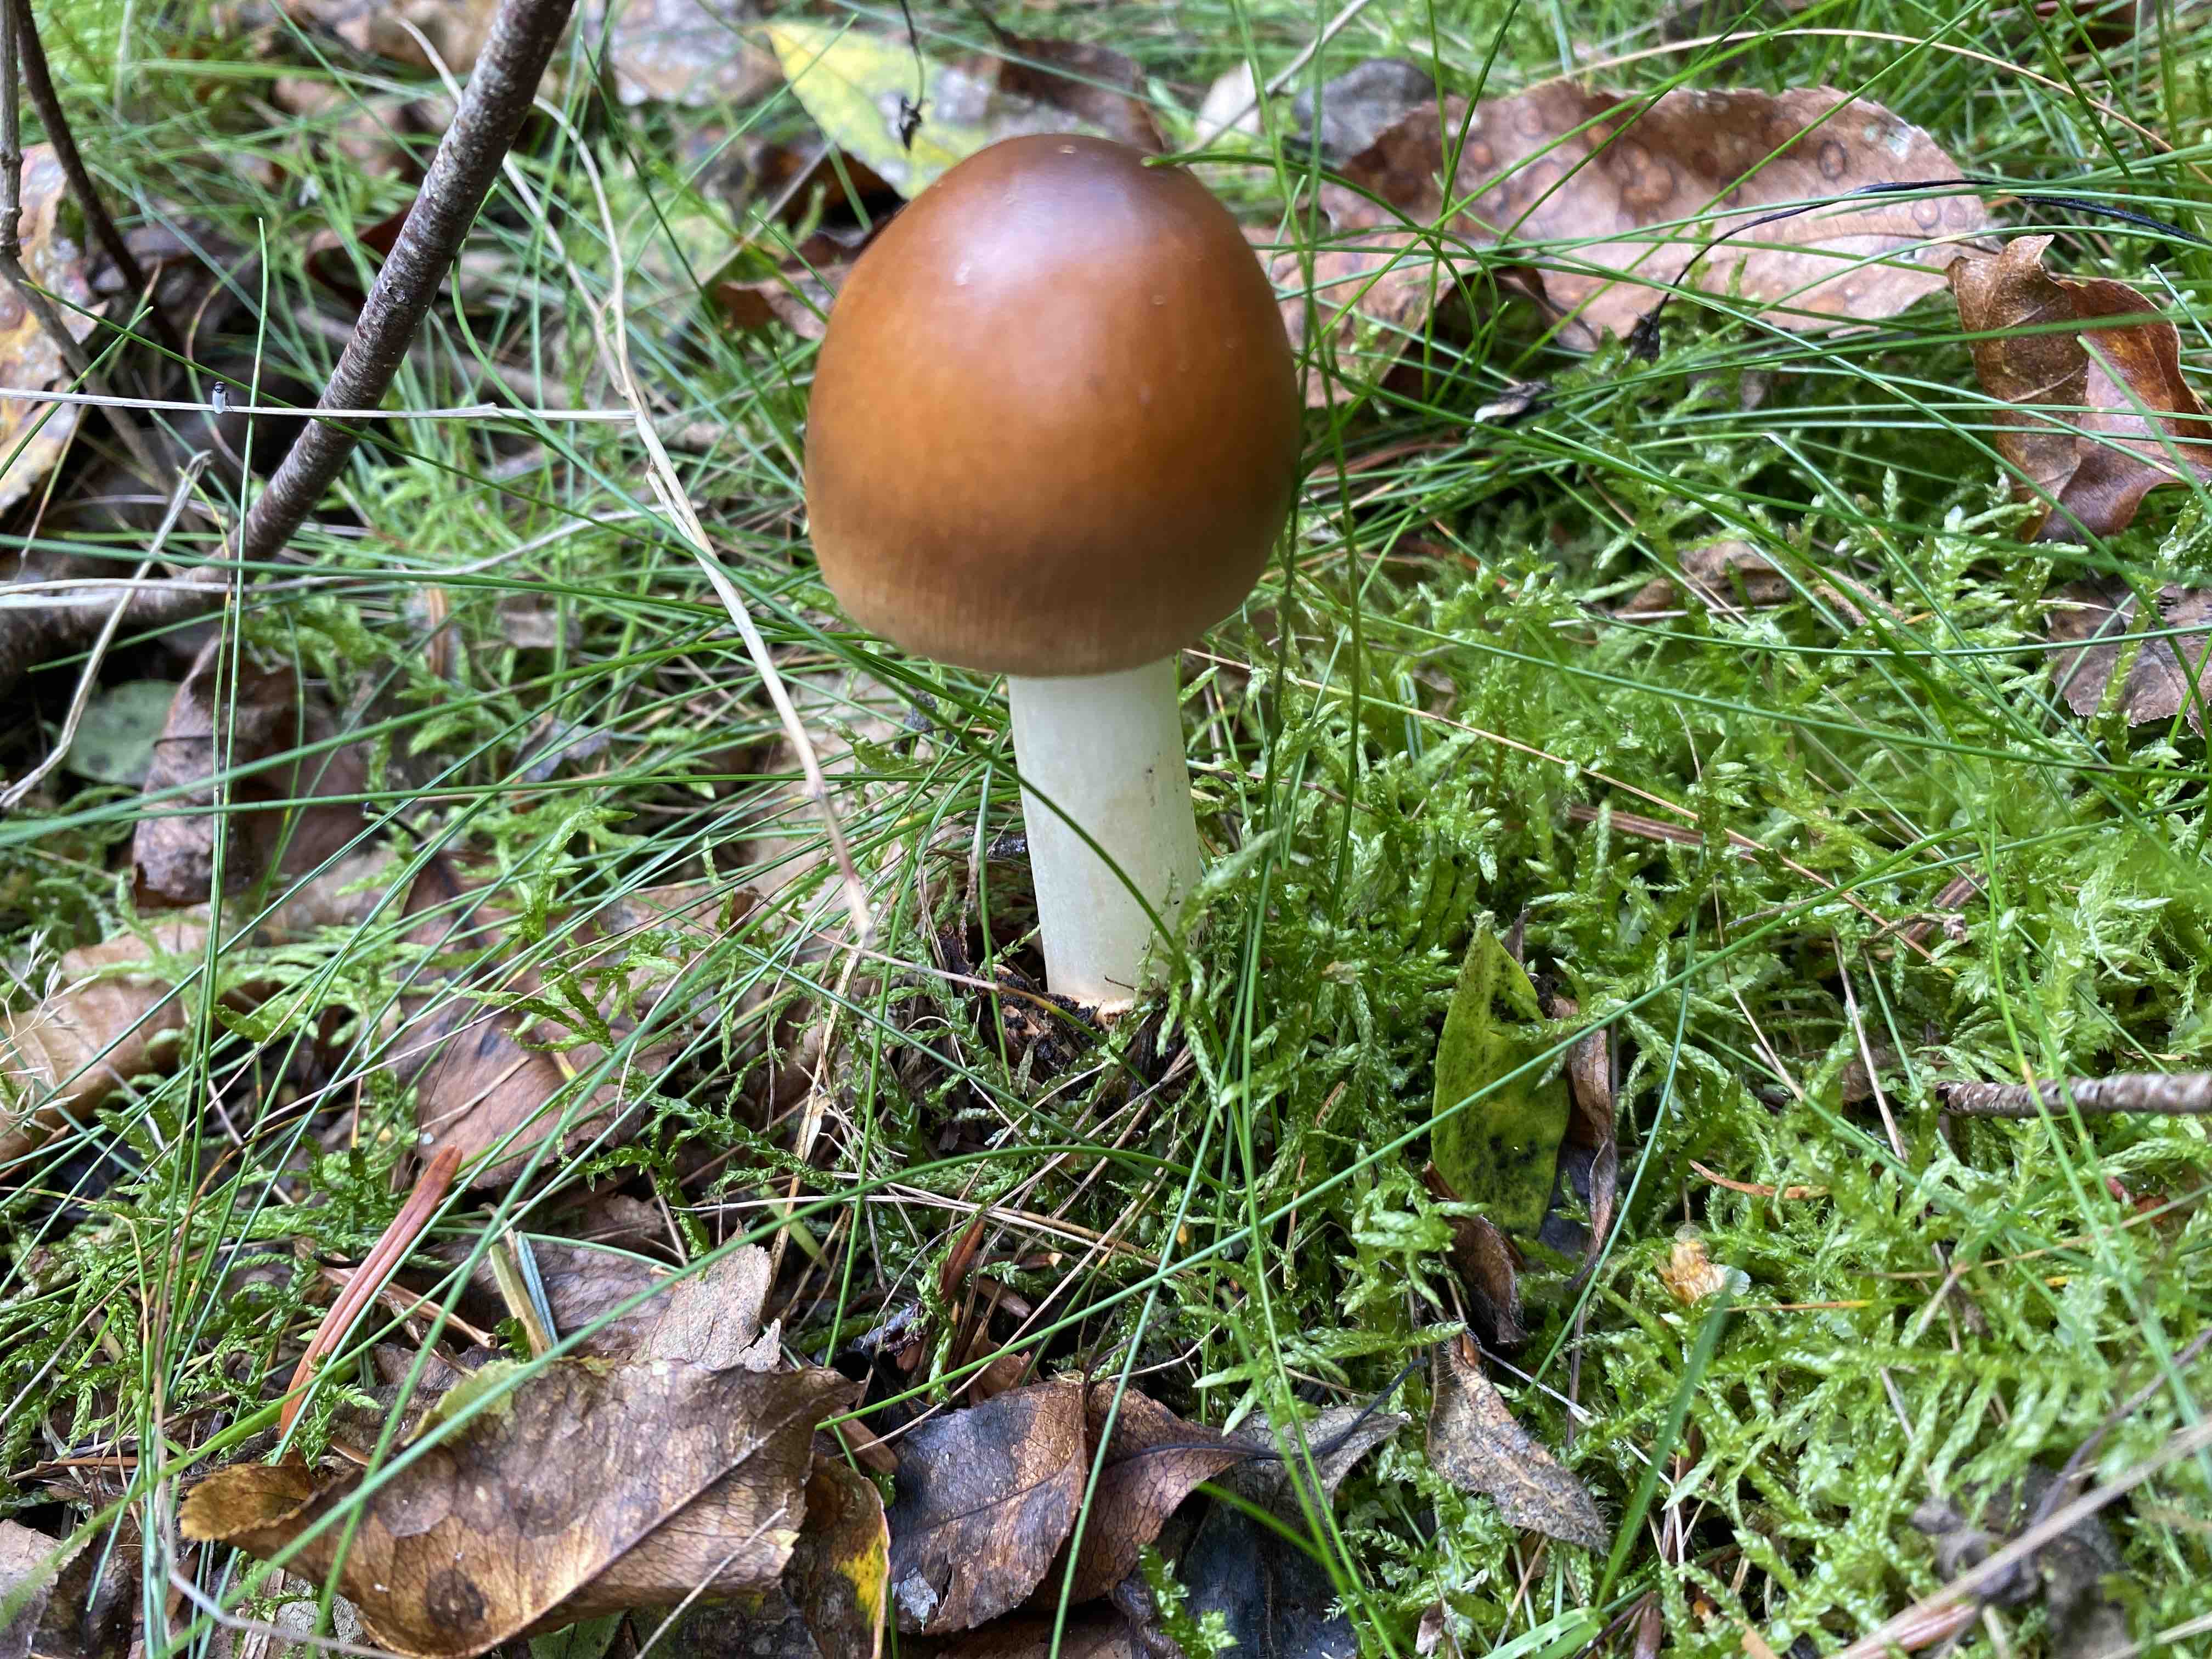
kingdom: Fungi
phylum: Basidiomycota
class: Agaricomycetes
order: Agaricales
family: Amanitaceae
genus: Amanita
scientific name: Amanita fulva
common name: brun kam-fluesvamp
